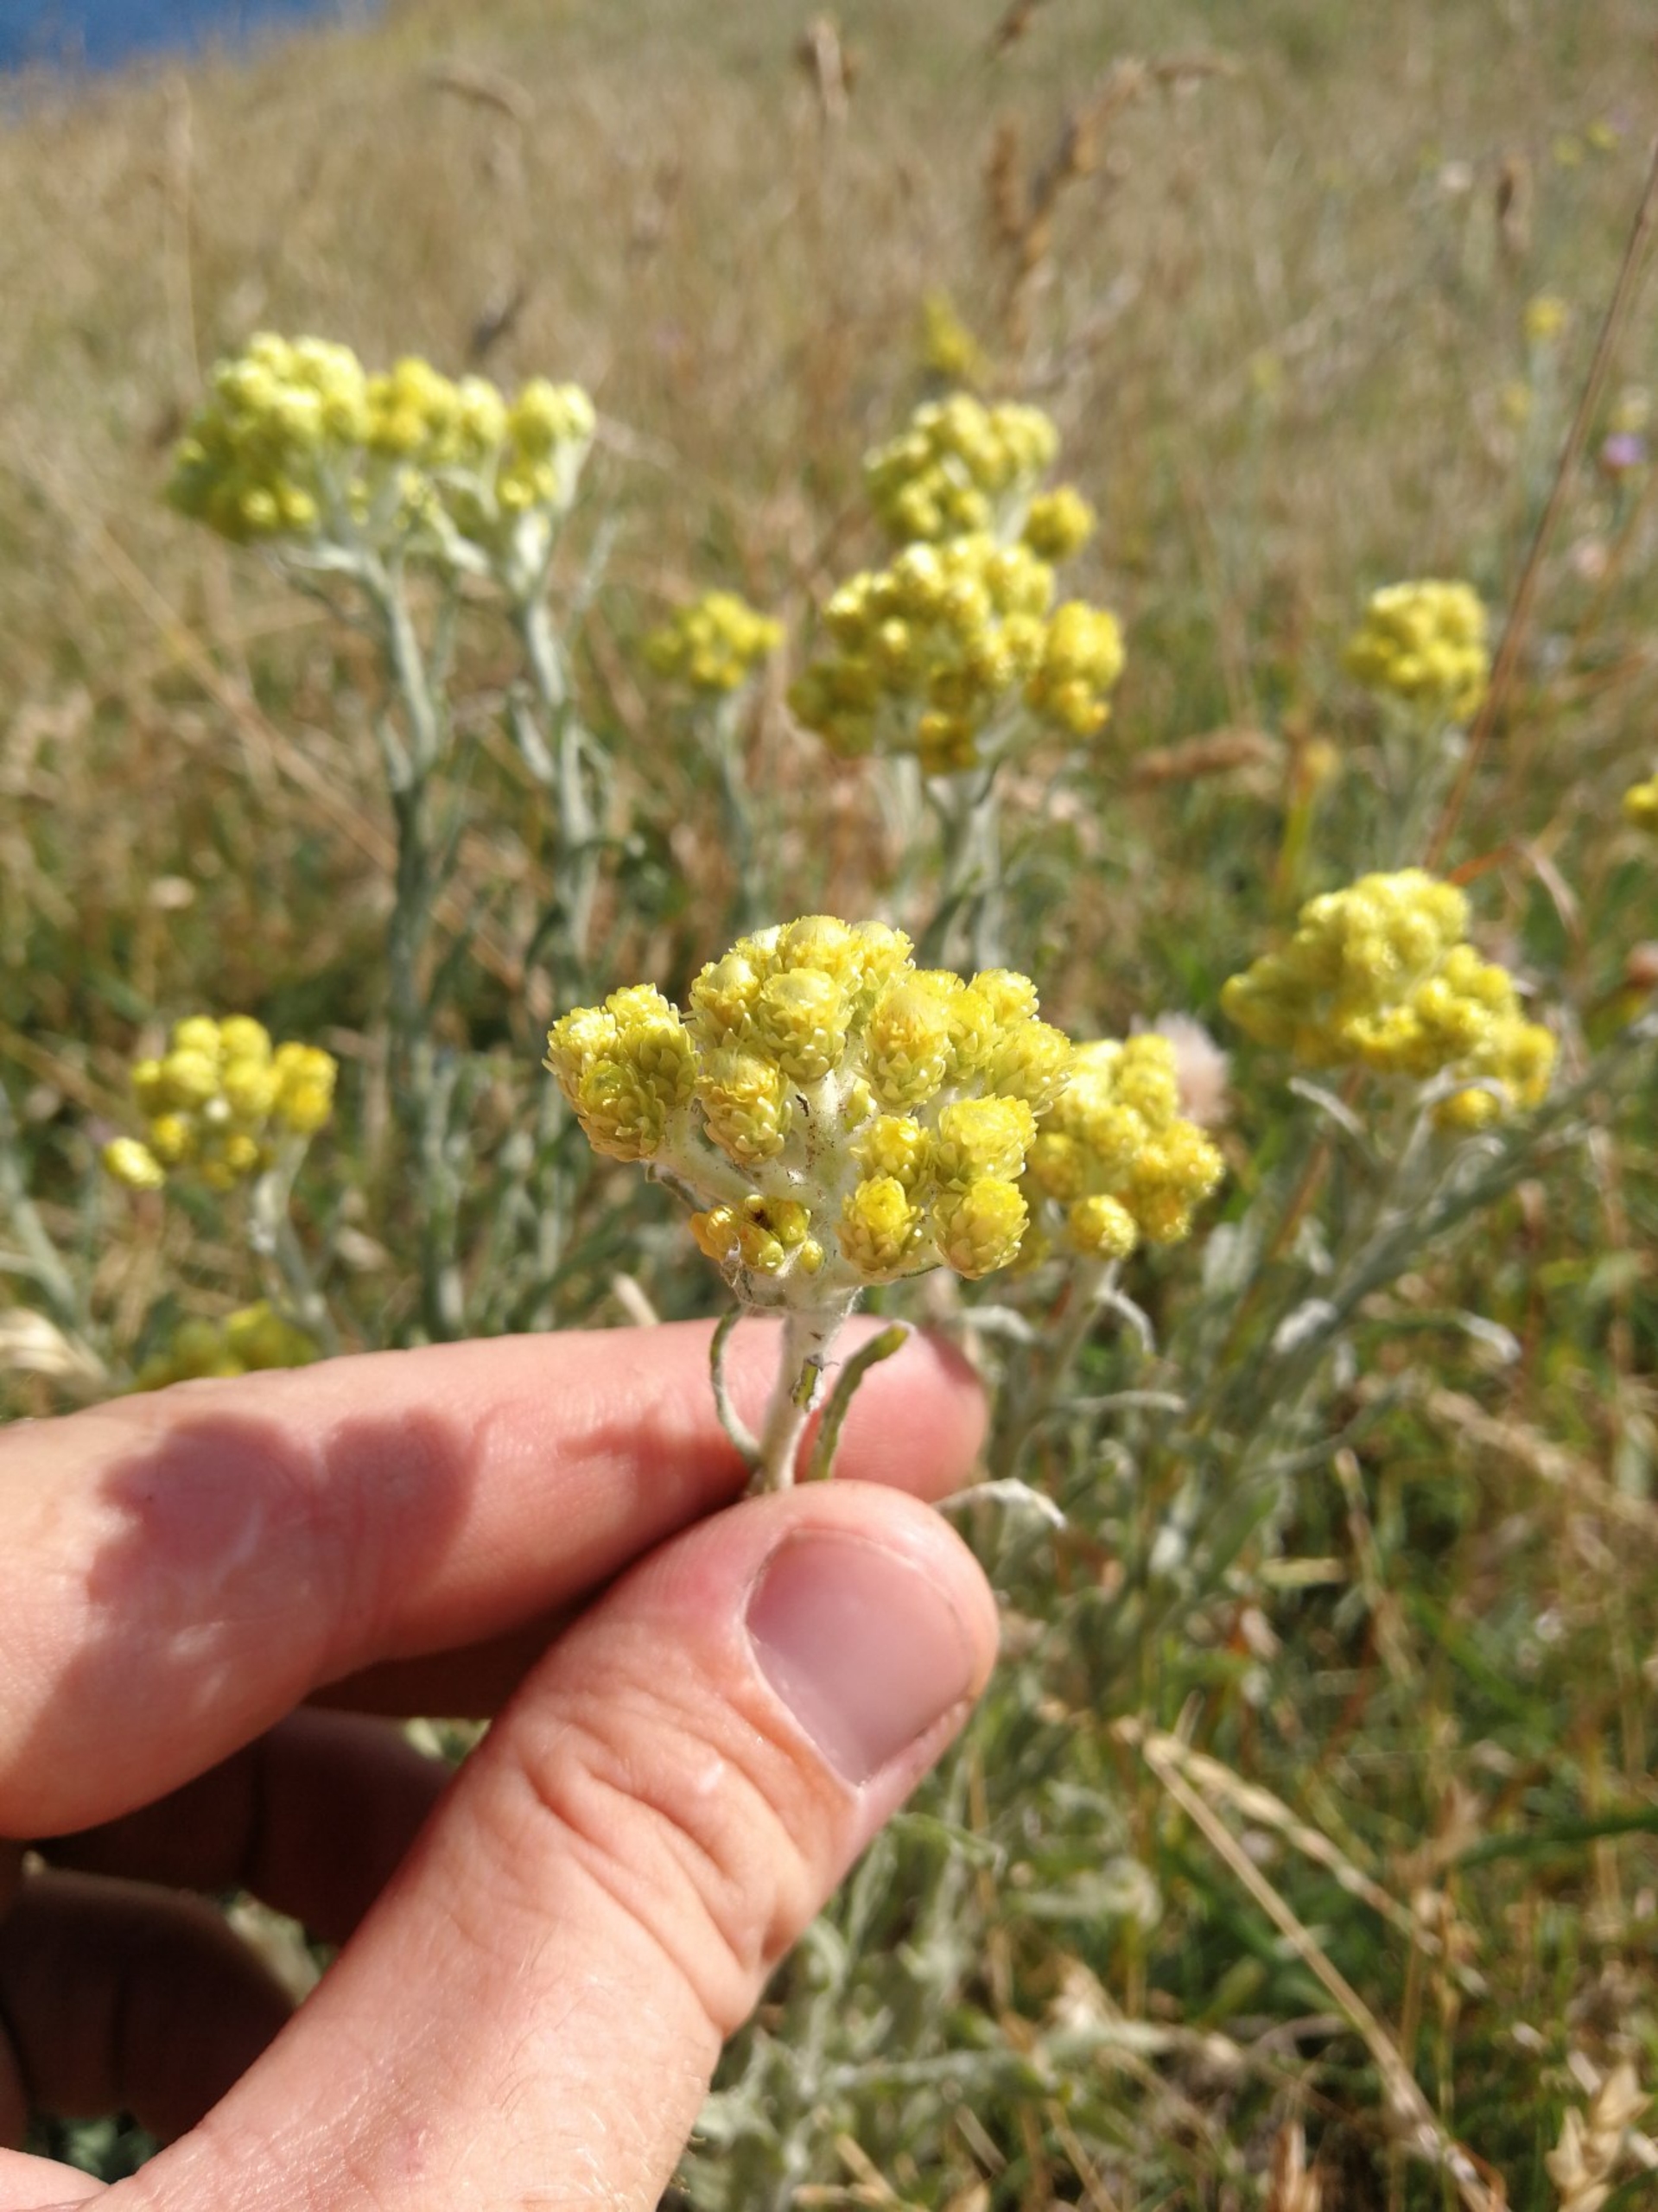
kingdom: Plantae
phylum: Tracheophyta
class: Magnoliopsida
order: Asterales
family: Asteraceae
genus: Helichrysum
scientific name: Helichrysum arenarium
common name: Gul evighedsblomst
